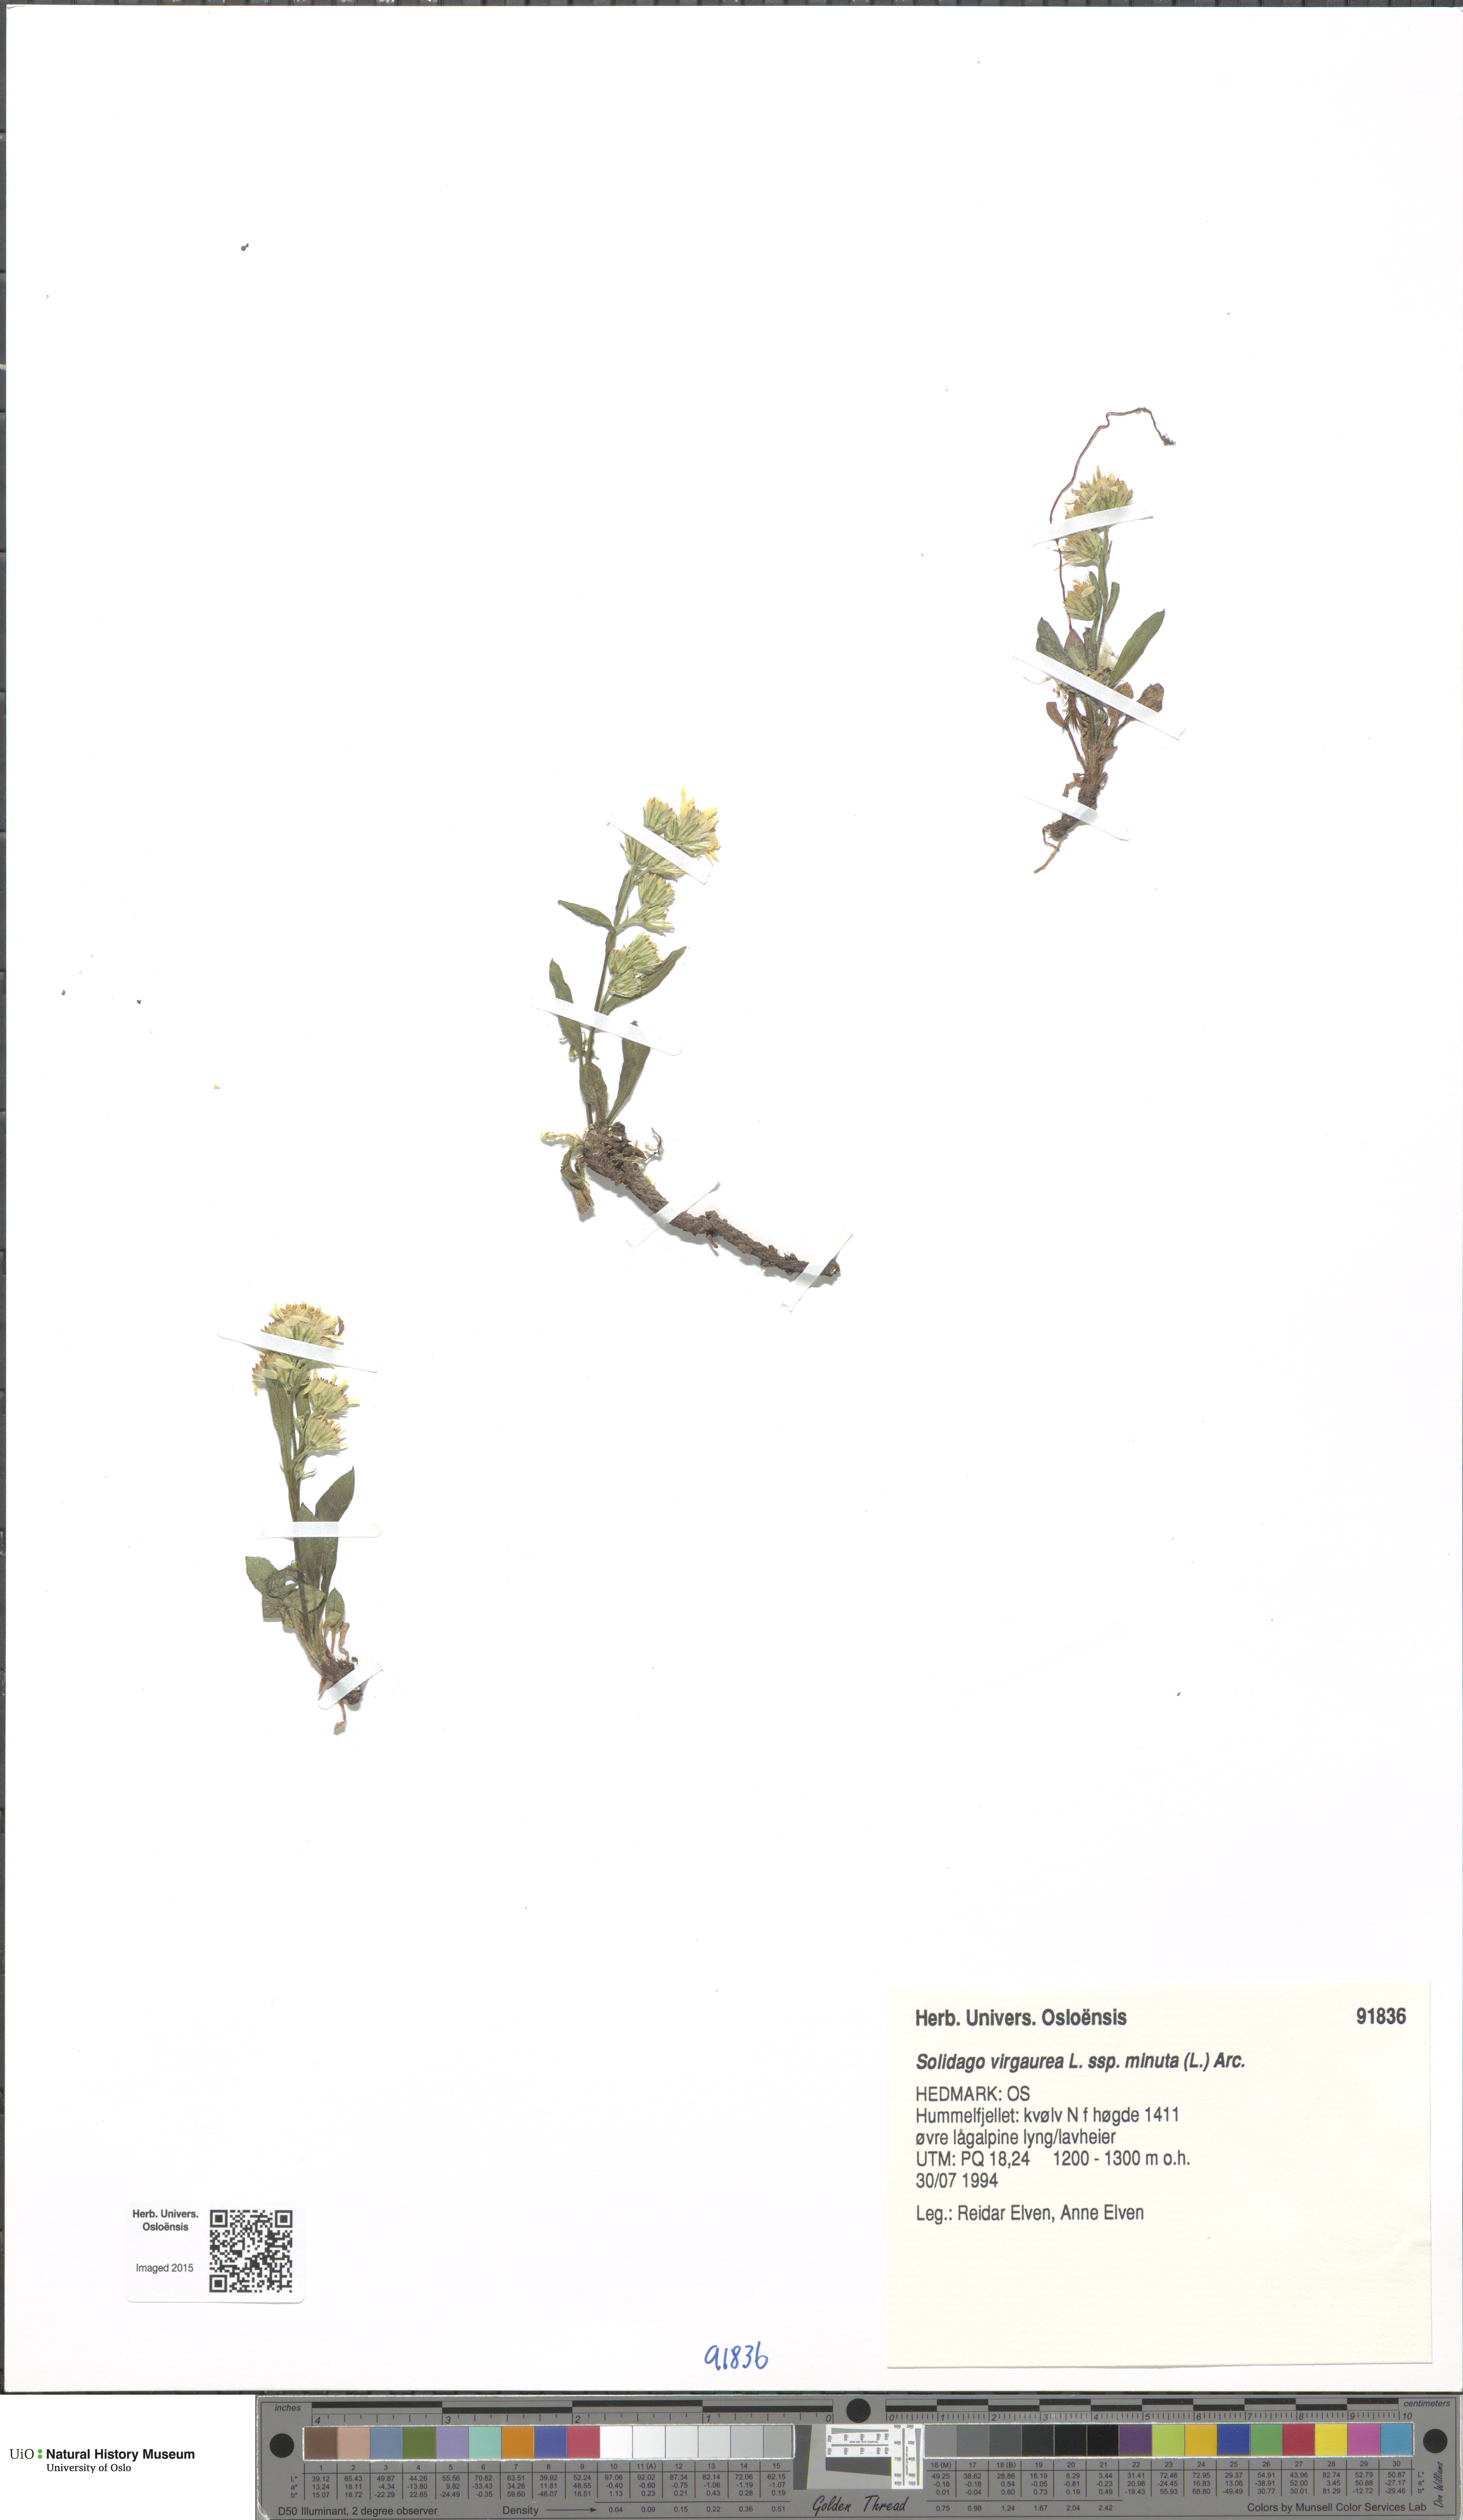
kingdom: Plantae
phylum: Tracheophyta
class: Magnoliopsida
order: Asterales
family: Asteraceae
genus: Solidago
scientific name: Solidago virgaurea
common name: Goldenrod
